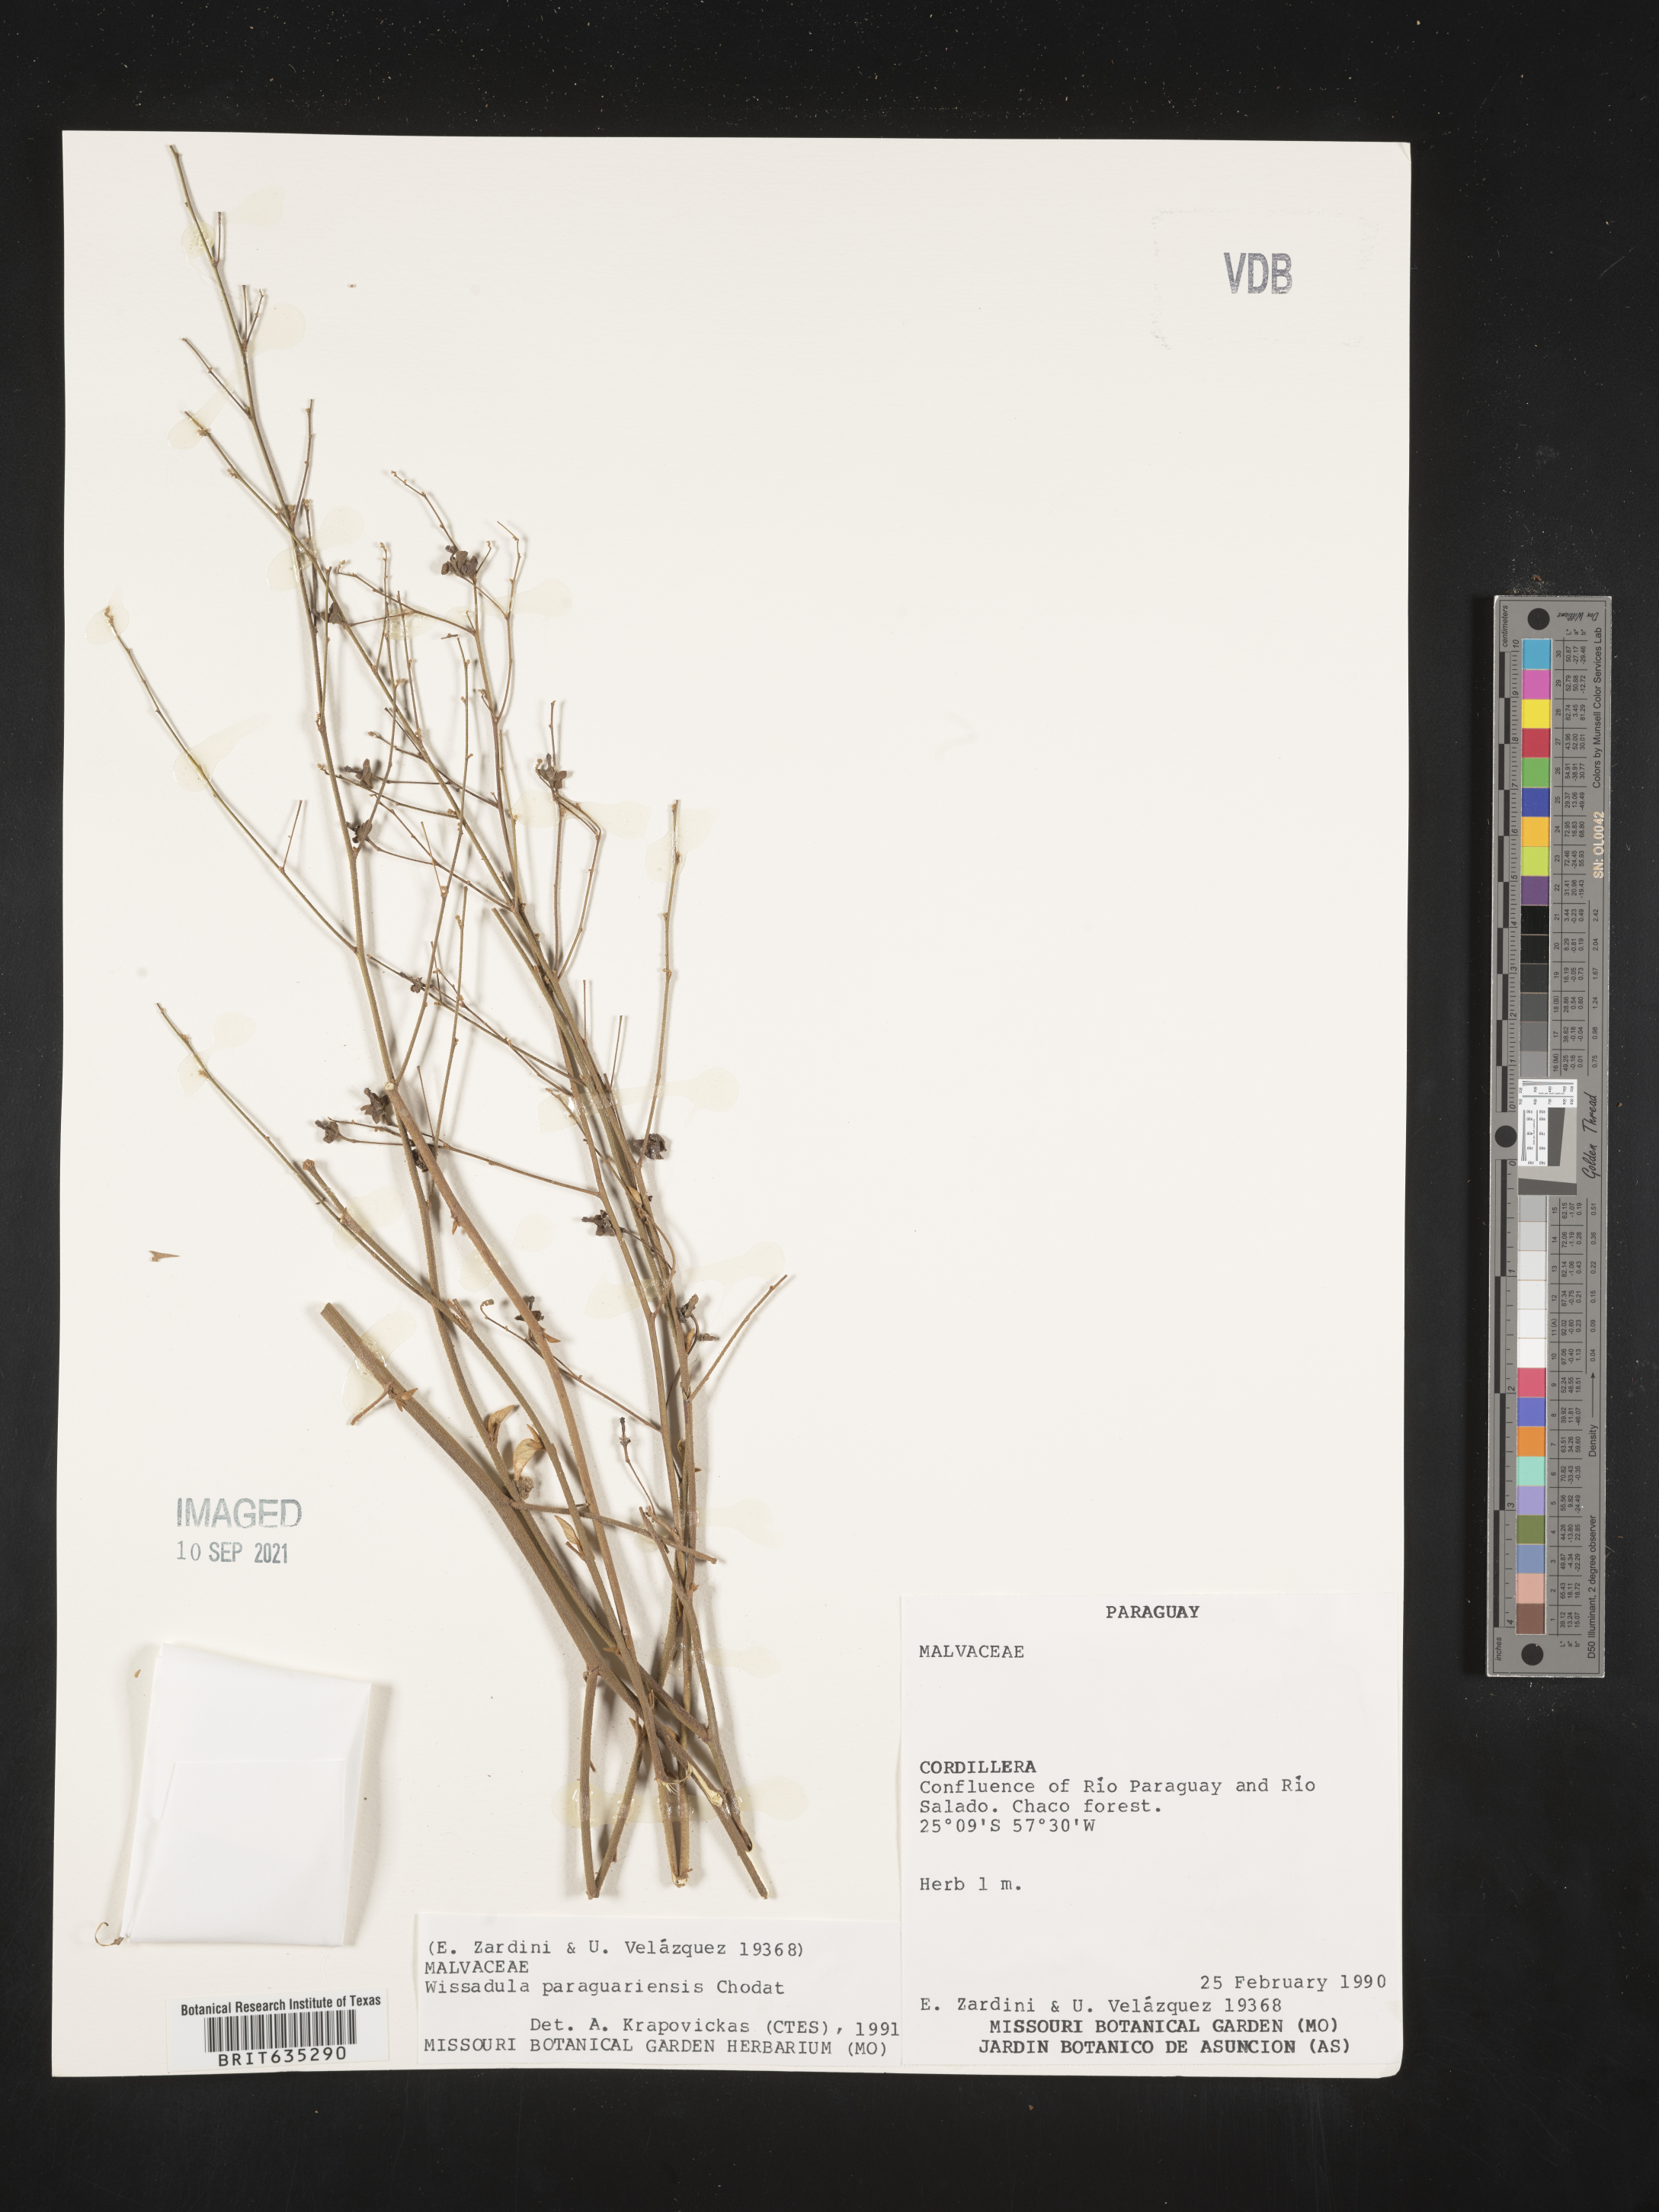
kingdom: Plantae
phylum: Tracheophyta
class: Magnoliopsida
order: Malvales
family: Malvaceae
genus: Wissadula
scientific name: Wissadula
